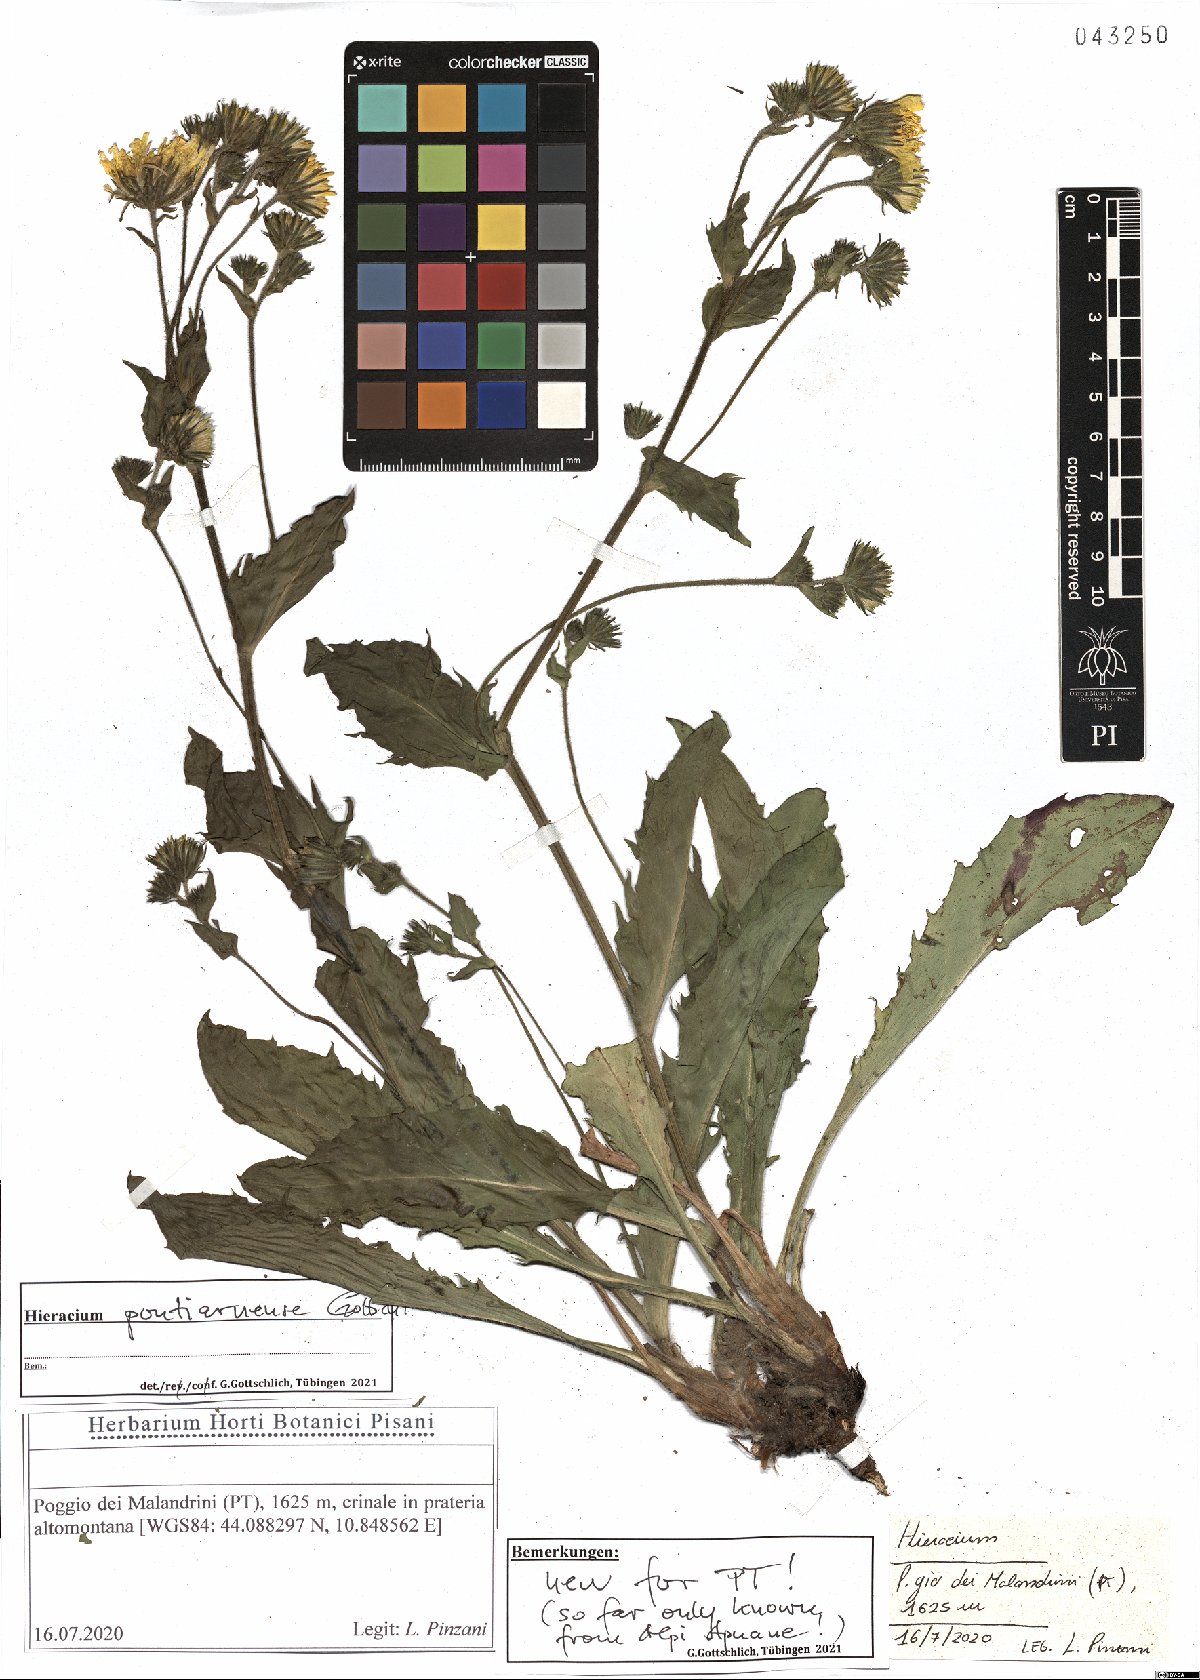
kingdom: Plantae
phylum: Tracheophyta
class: Magnoliopsida
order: Asterales
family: Asteraceae
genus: Hieracium
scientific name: Hieracium pontiarnense
